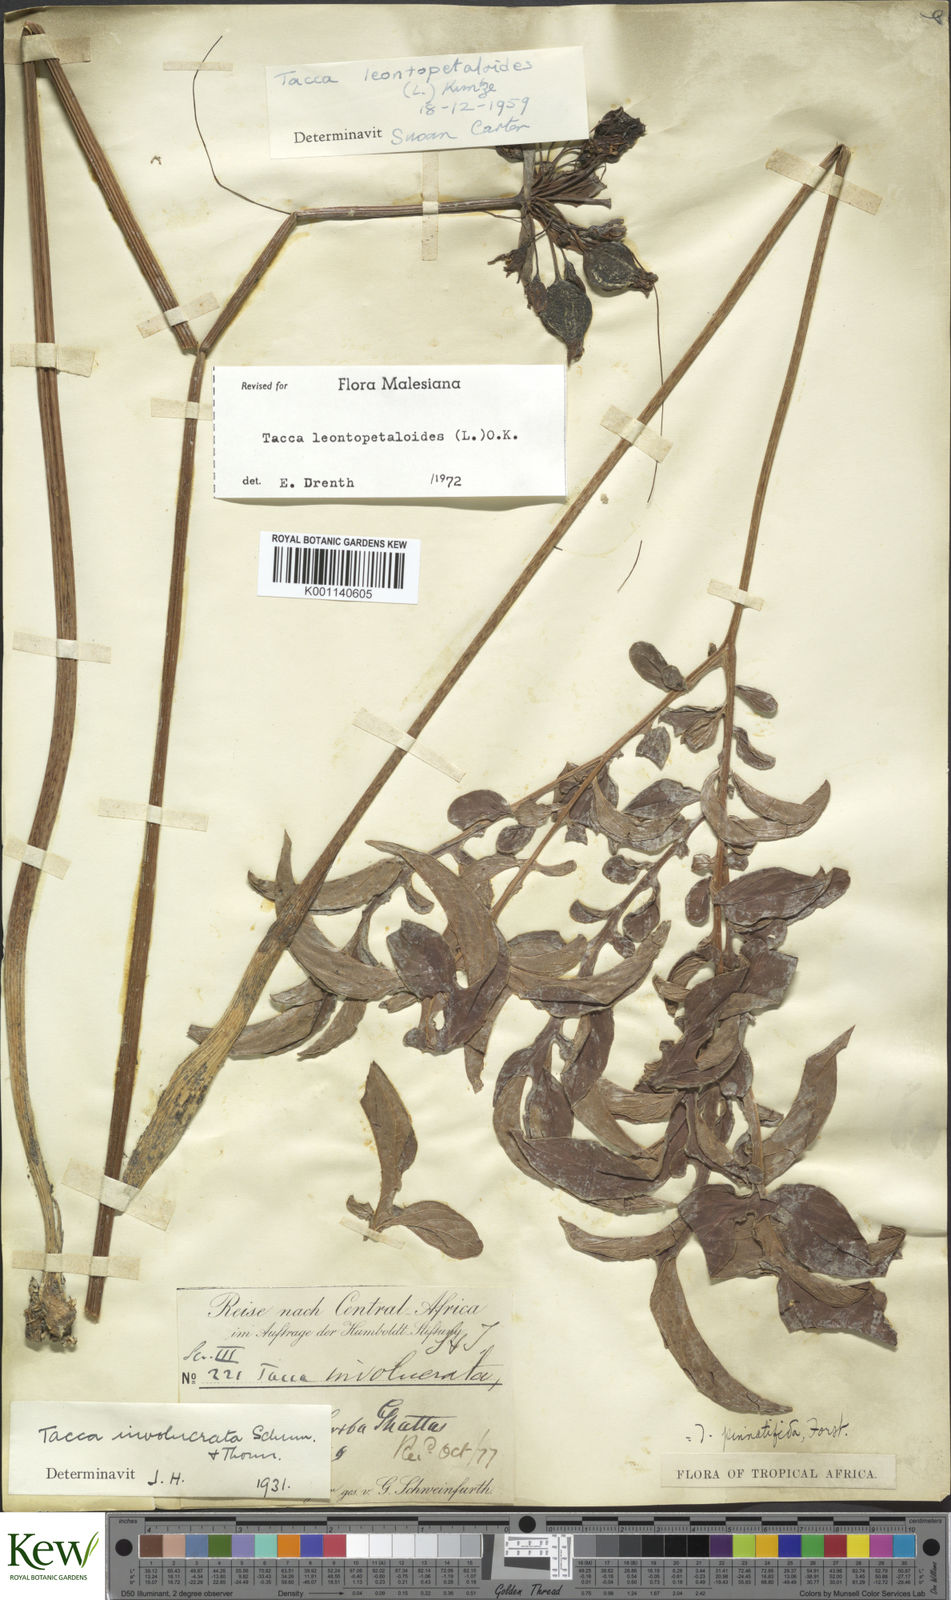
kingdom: Plantae
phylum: Tracheophyta
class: Liliopsida
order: Dioscoreales
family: Dioscoreaceae
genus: Tacca
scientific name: Tacca leontopetaloides
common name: Arrowroot
